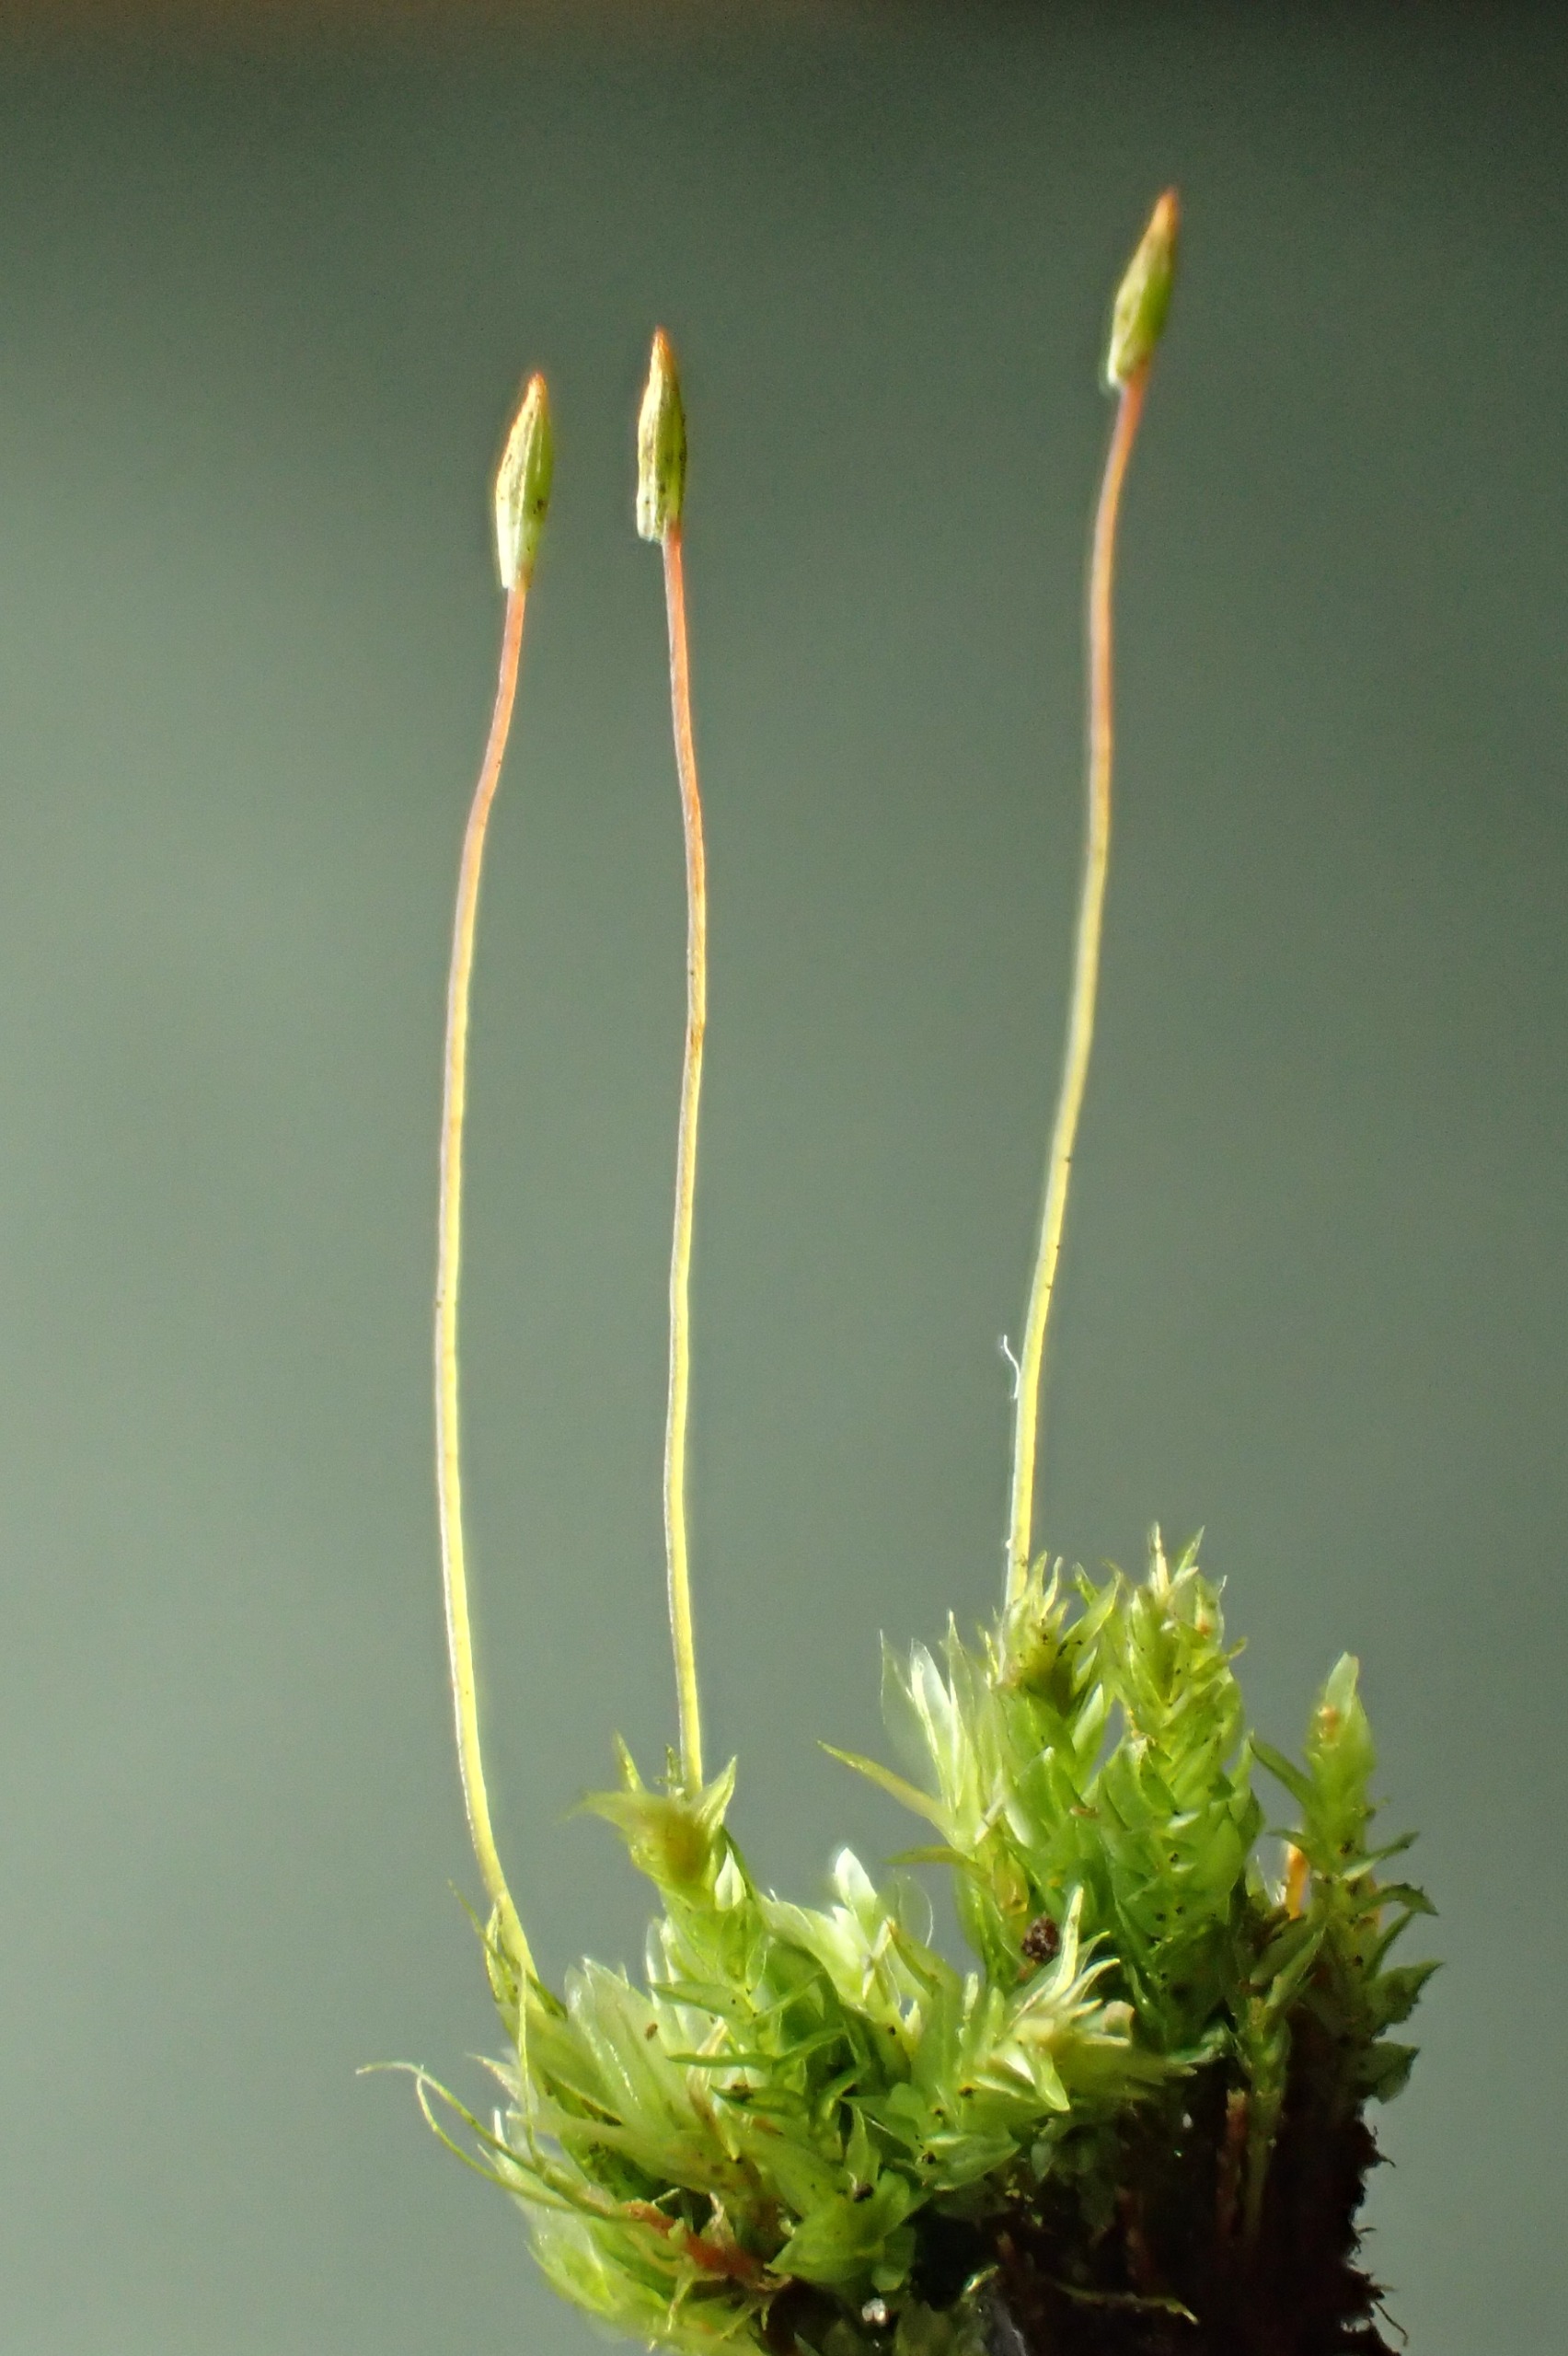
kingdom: Plantae
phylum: Bryophyta
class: Polytrichopsida
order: Tetraphidales
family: Tetraphidaceae
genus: Tetraphis
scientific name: Tetraphis pellucida
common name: Almindelig firtand
